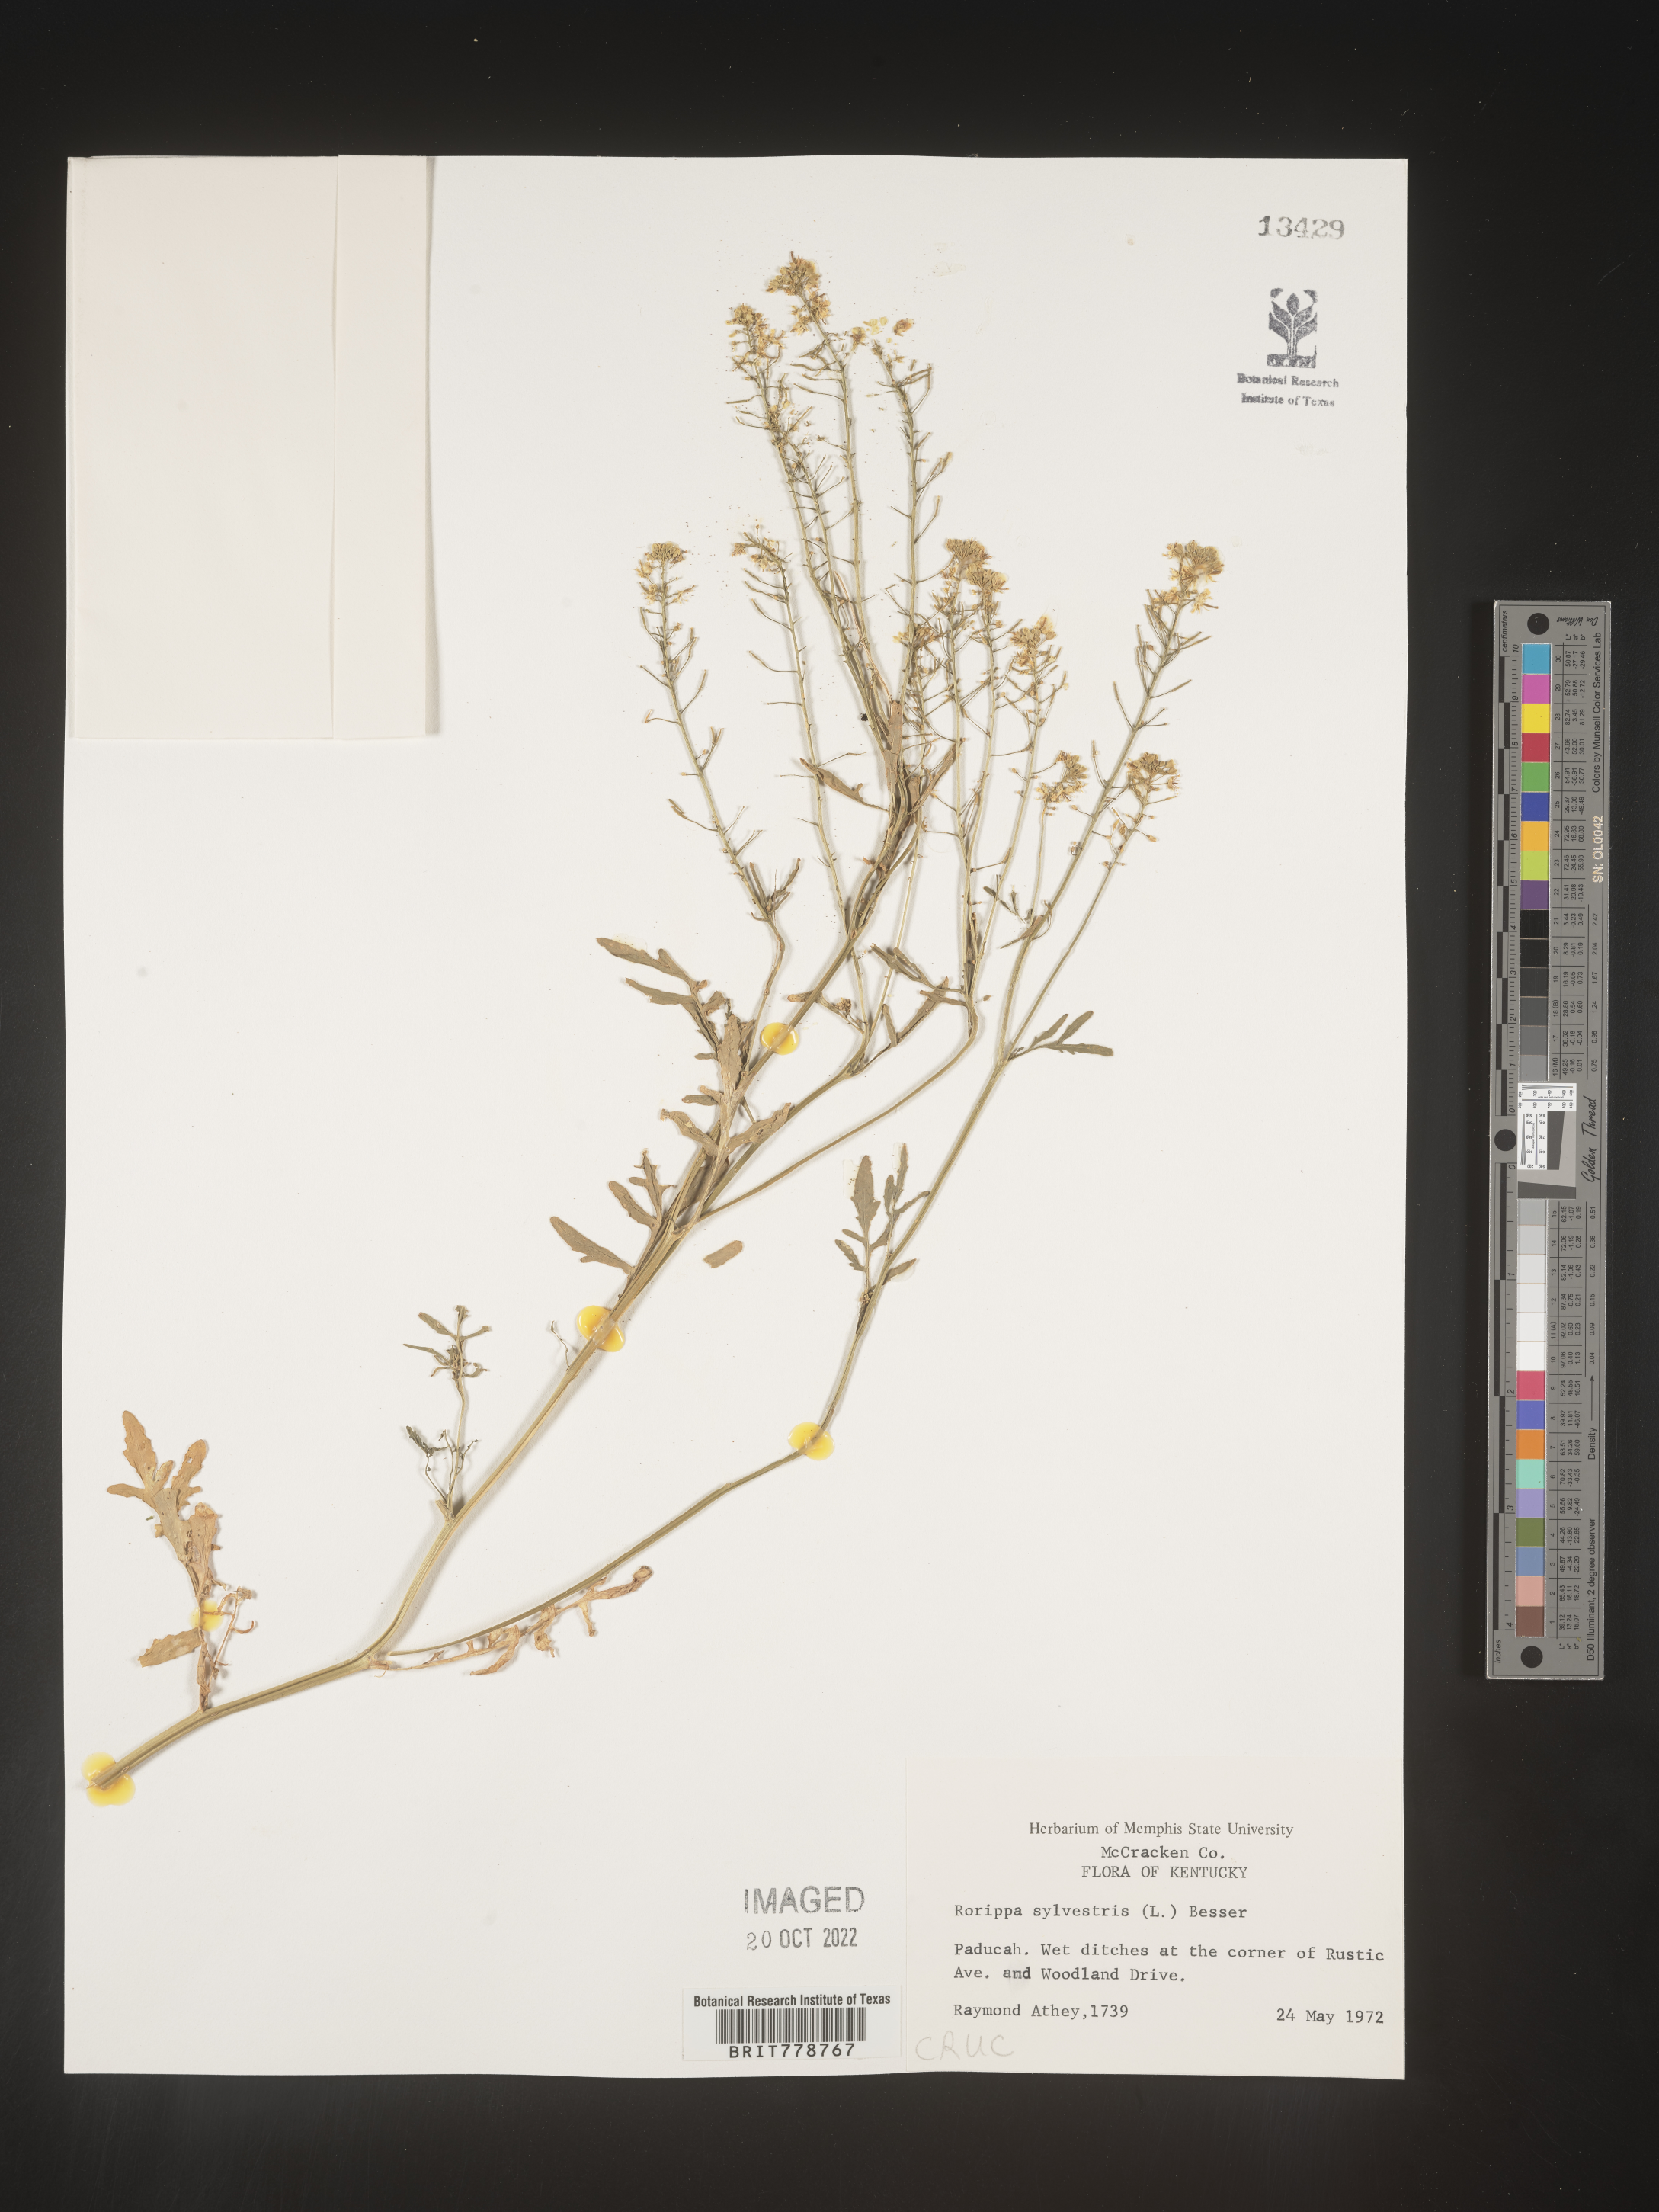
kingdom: Plantae
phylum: Tracheophyta
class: Magnoliopsida
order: Brassicales
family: Brassicaceae
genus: Rorippa
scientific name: Rorippa sylvestris
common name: Creeping yellowcress
